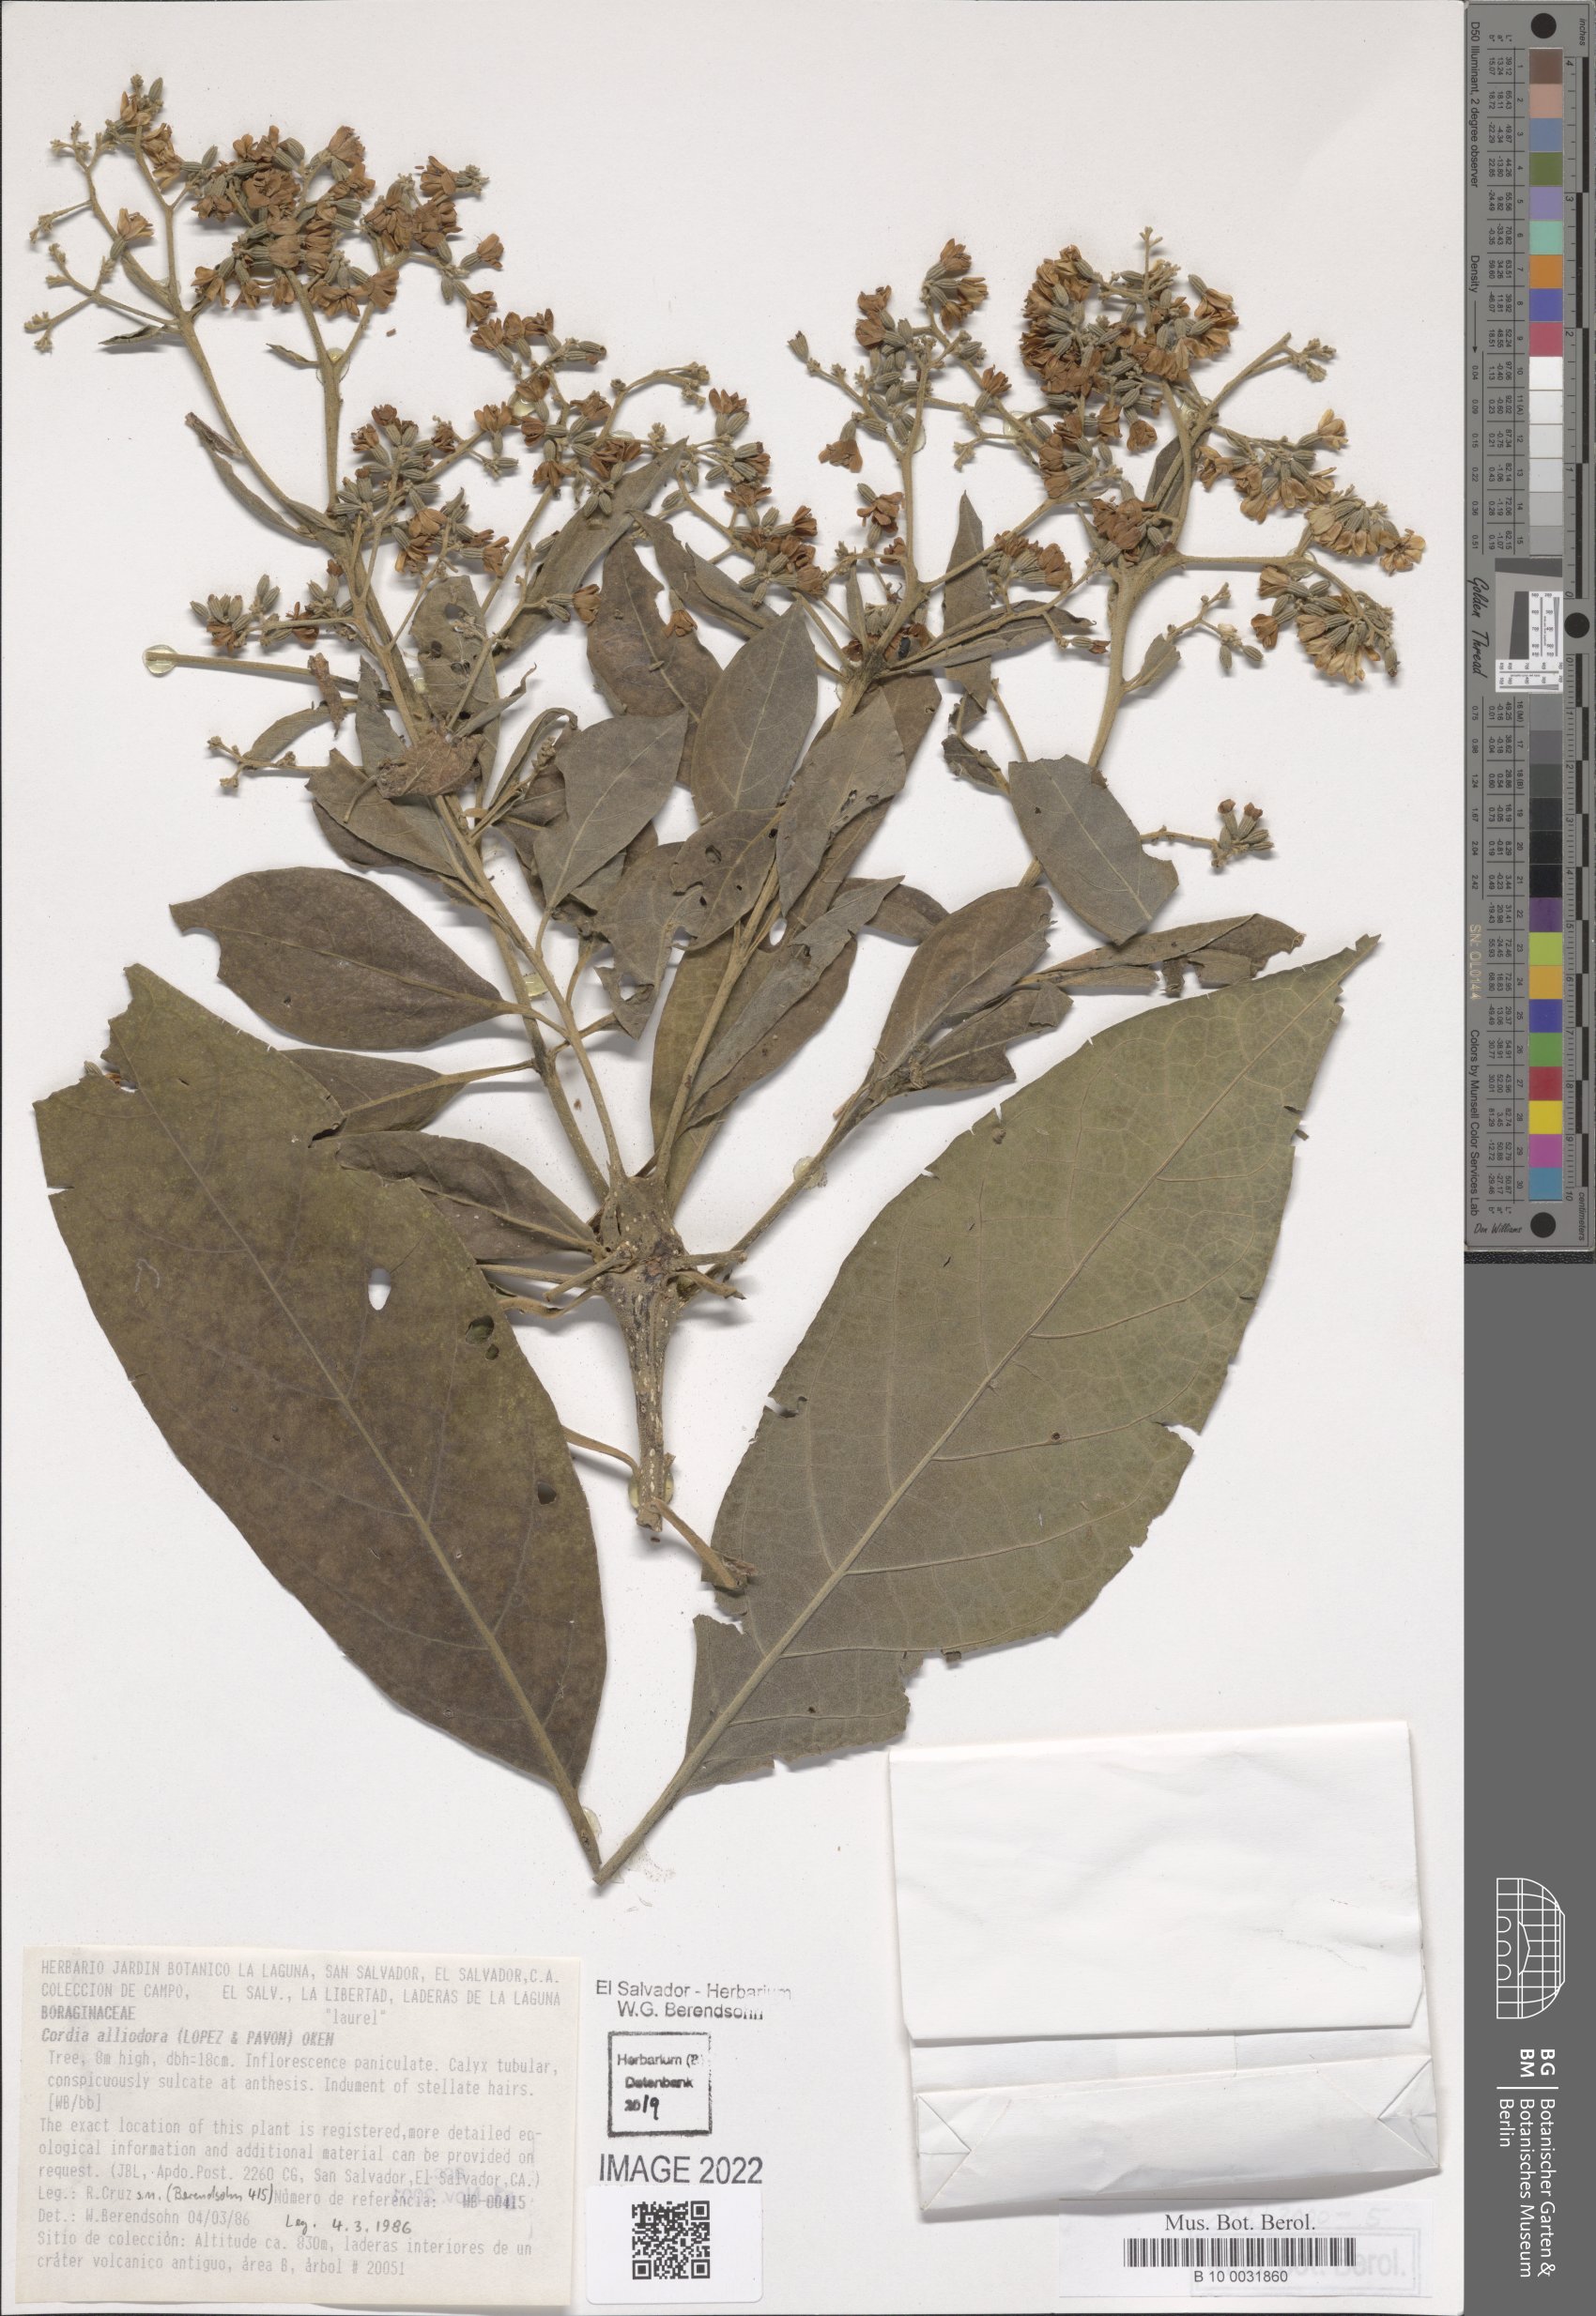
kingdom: Plantae
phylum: Tracheophyta
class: Magnoliopsida
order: Boraginales
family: Cordiaceae
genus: Cordia
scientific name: Cordia alliodora
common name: Spanish elm
